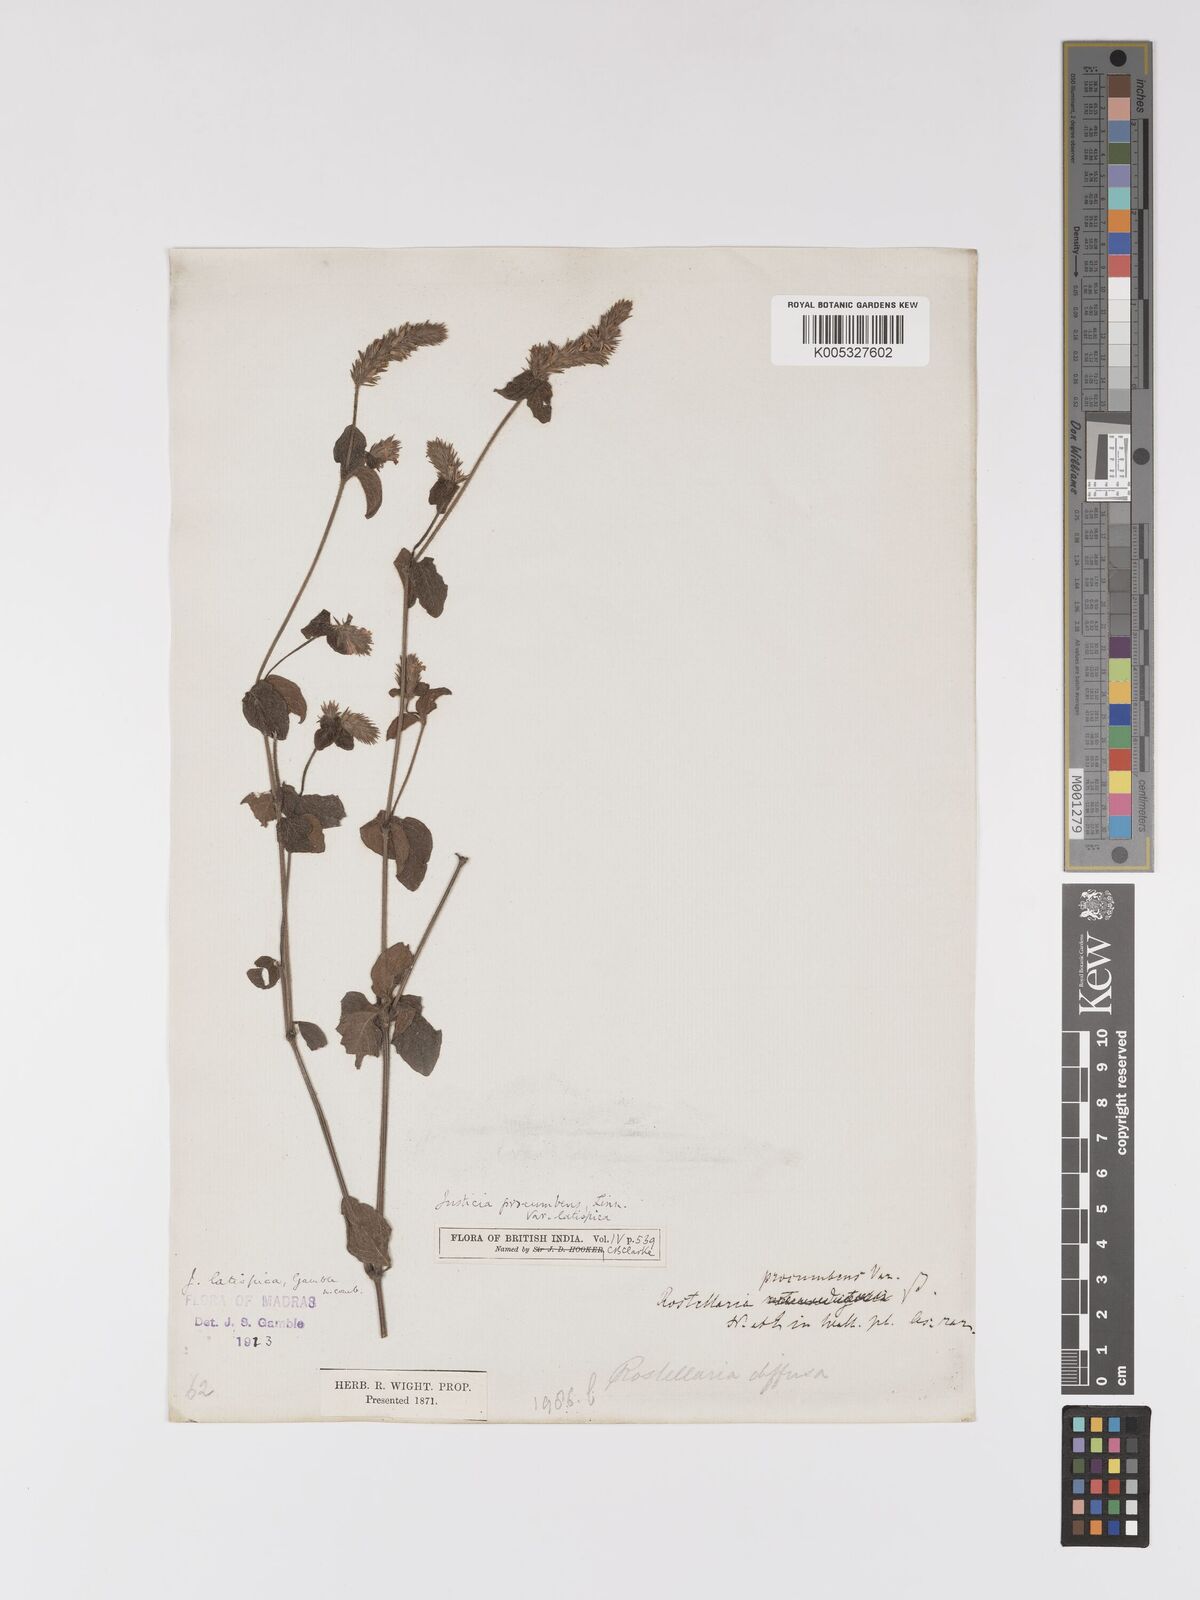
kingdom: Plantae
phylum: Tracheophyta
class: Magnoliopsida
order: Lamiales
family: Acanthaceae
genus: Rostellularia
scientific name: Rostellularia latispica
